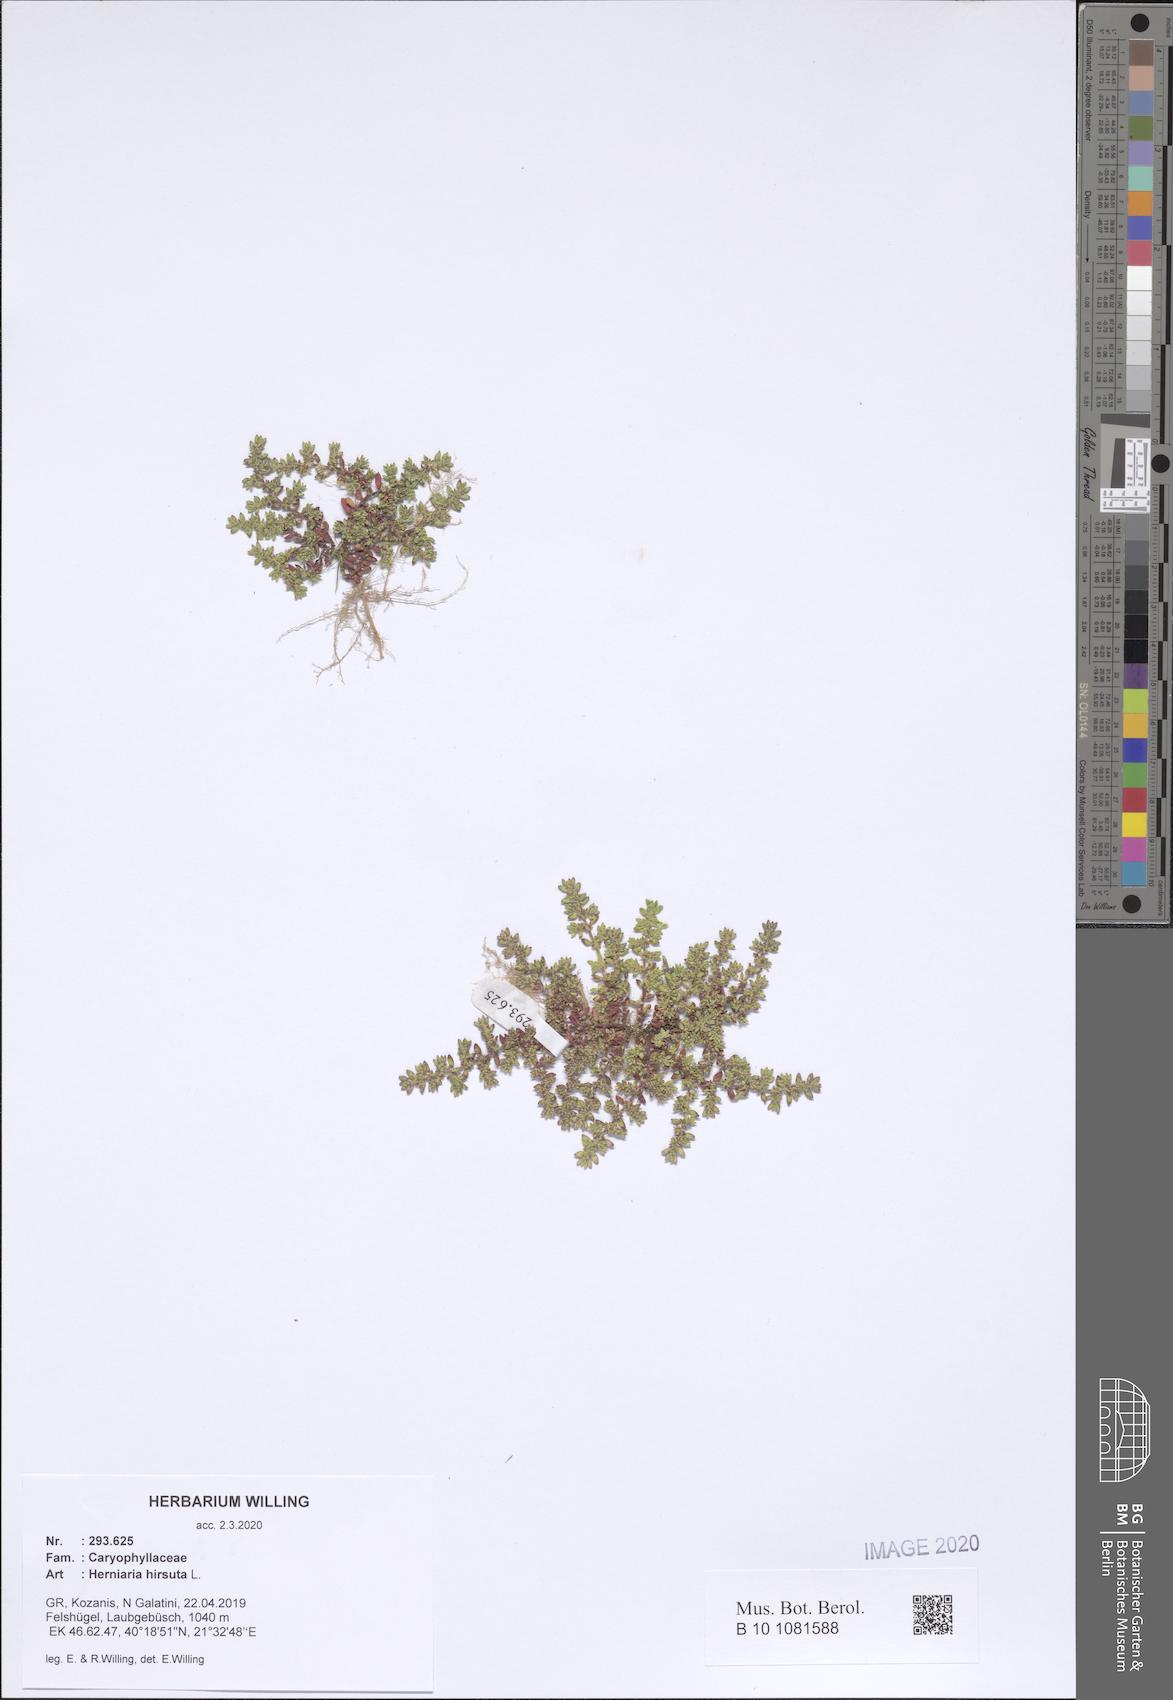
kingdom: Plantae
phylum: Tracheophyta
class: Magnoliopsida
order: Caryophyllales
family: Caryophyllaceae
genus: Herniaria
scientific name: Herniaria hirsuta
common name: Hairy rupturewort
